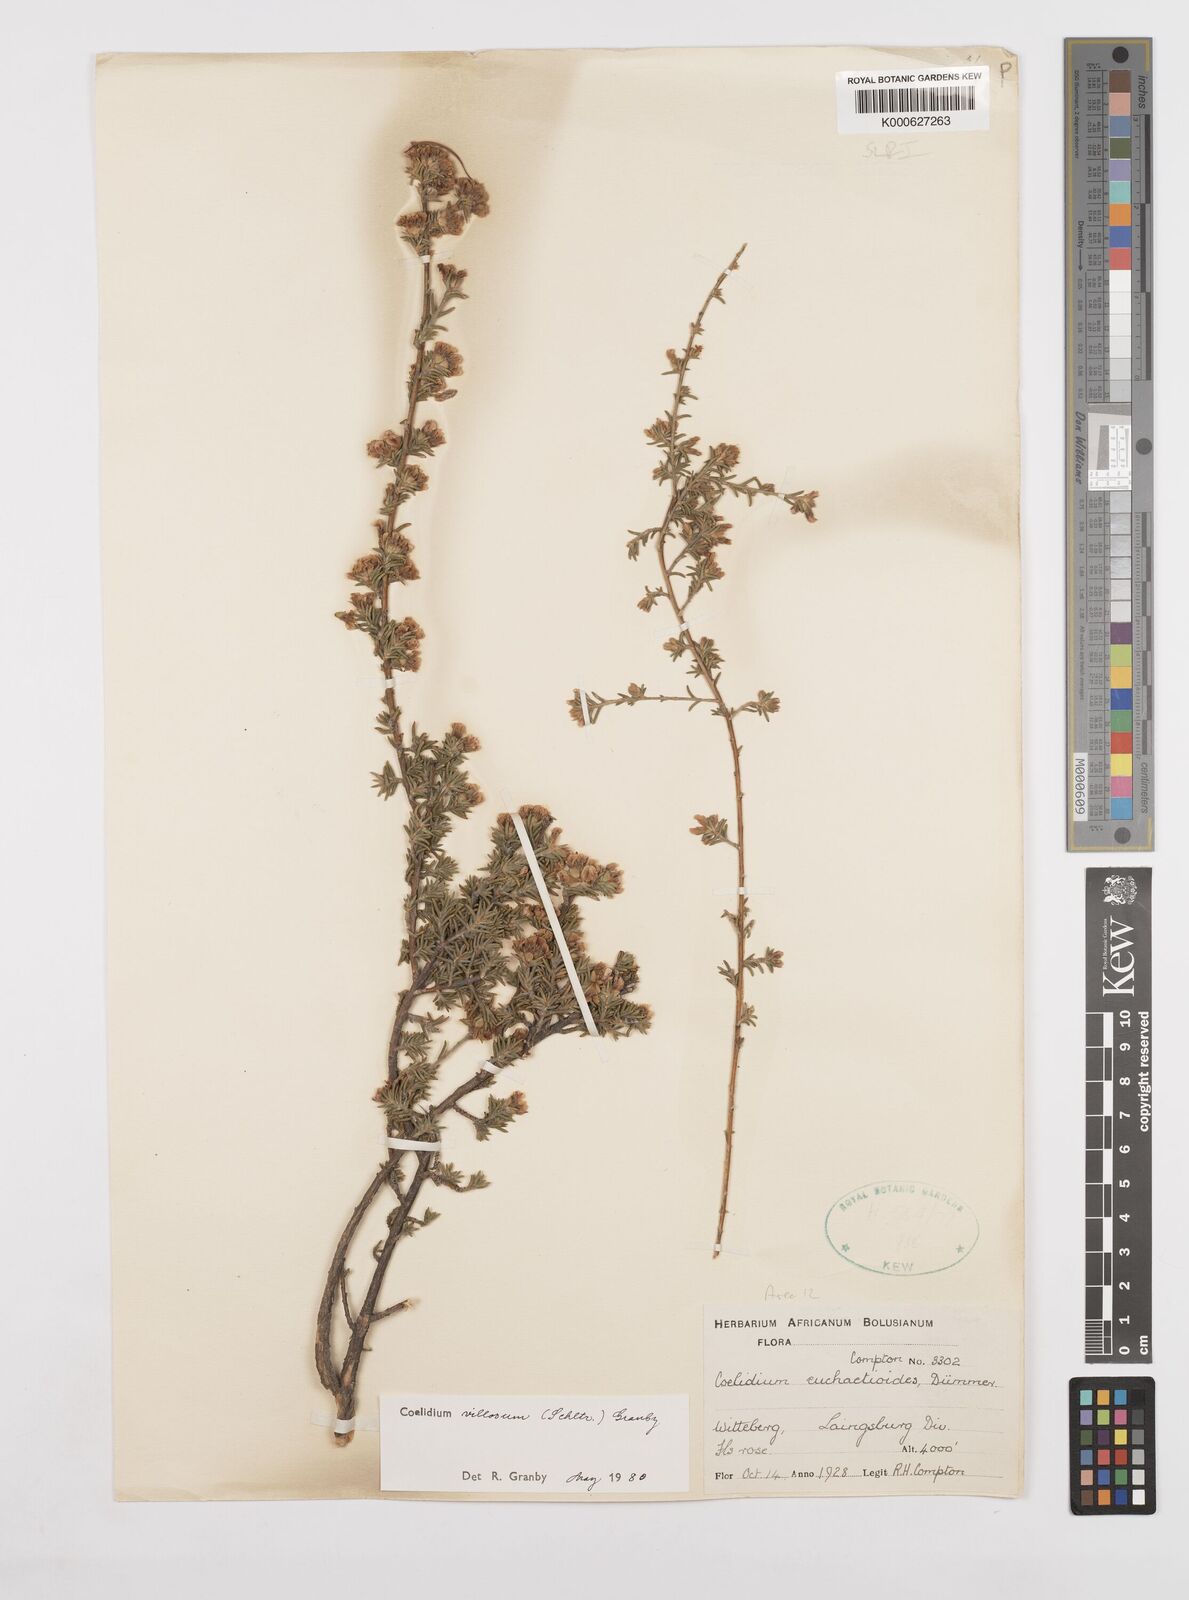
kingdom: Plantae
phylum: Tracheophyta
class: Magnoliopsida
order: Fabales
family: Fabaceae
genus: Amphithalea
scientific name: Amphithalea villosa
